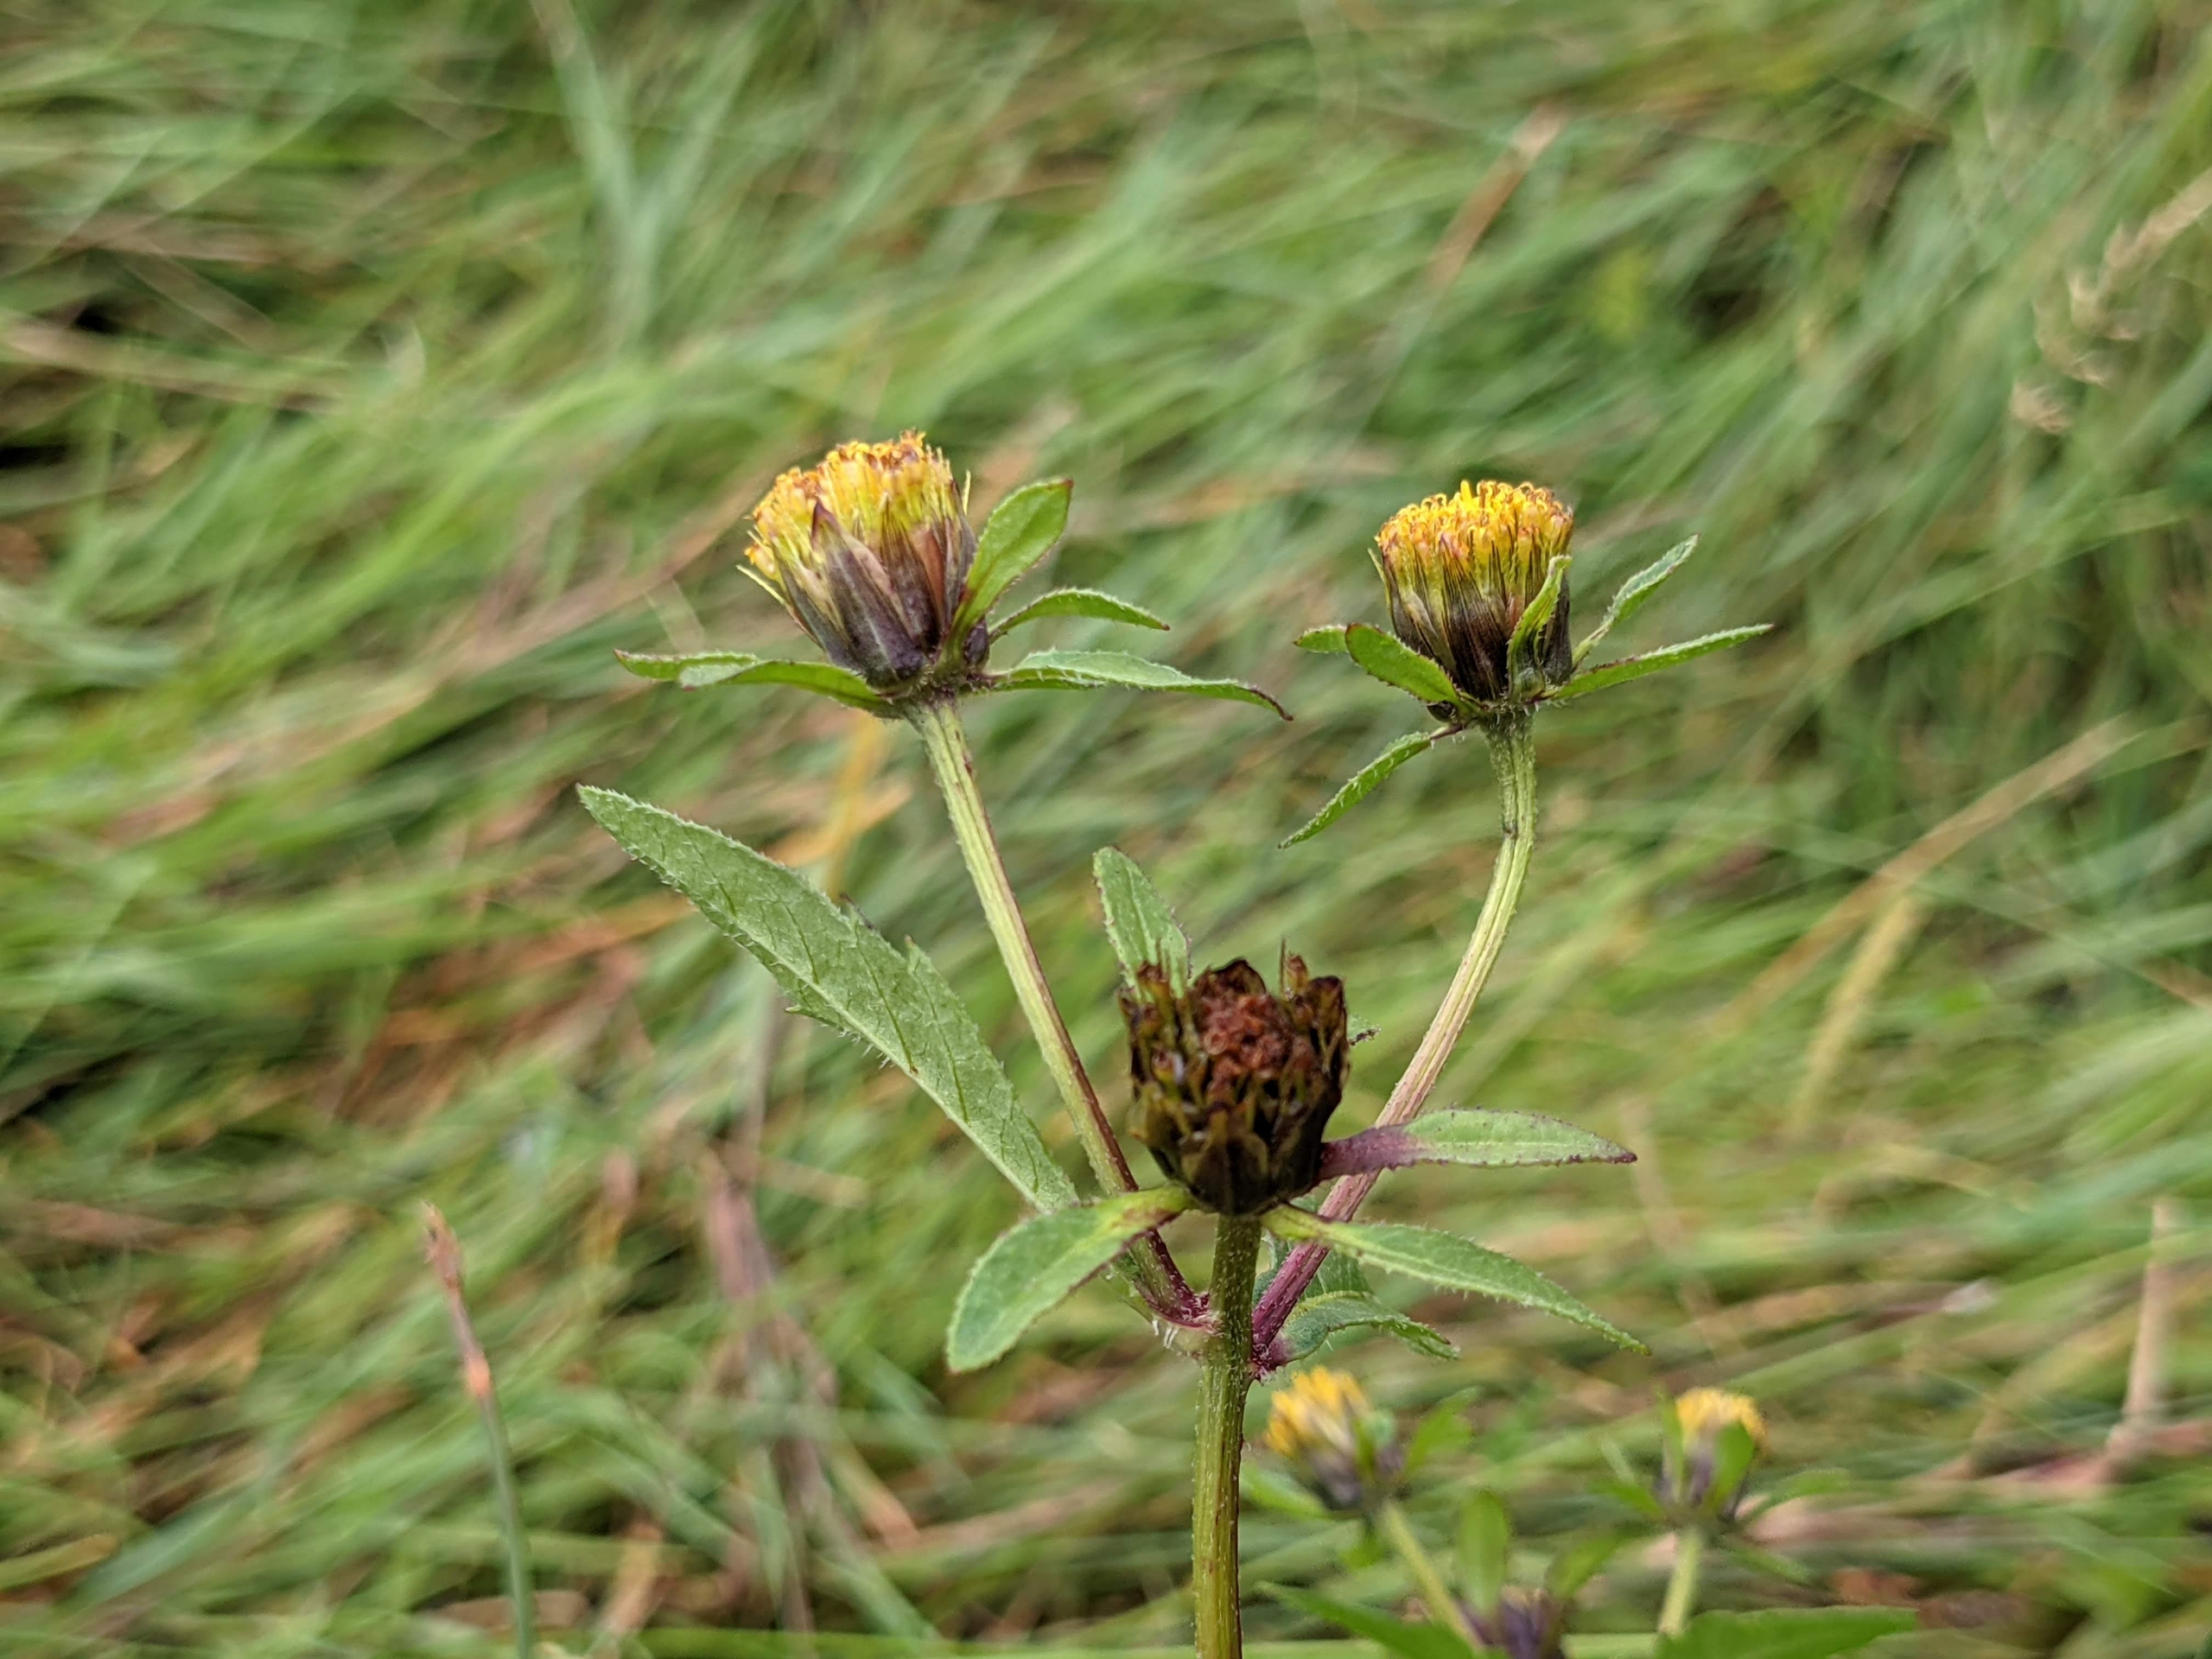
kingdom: Plantae
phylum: Tracheophyta
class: Magnoliopsida
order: Asterales
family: Asteraceae
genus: Bidens
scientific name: Bidens tripartita
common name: Fliget brøndsel
